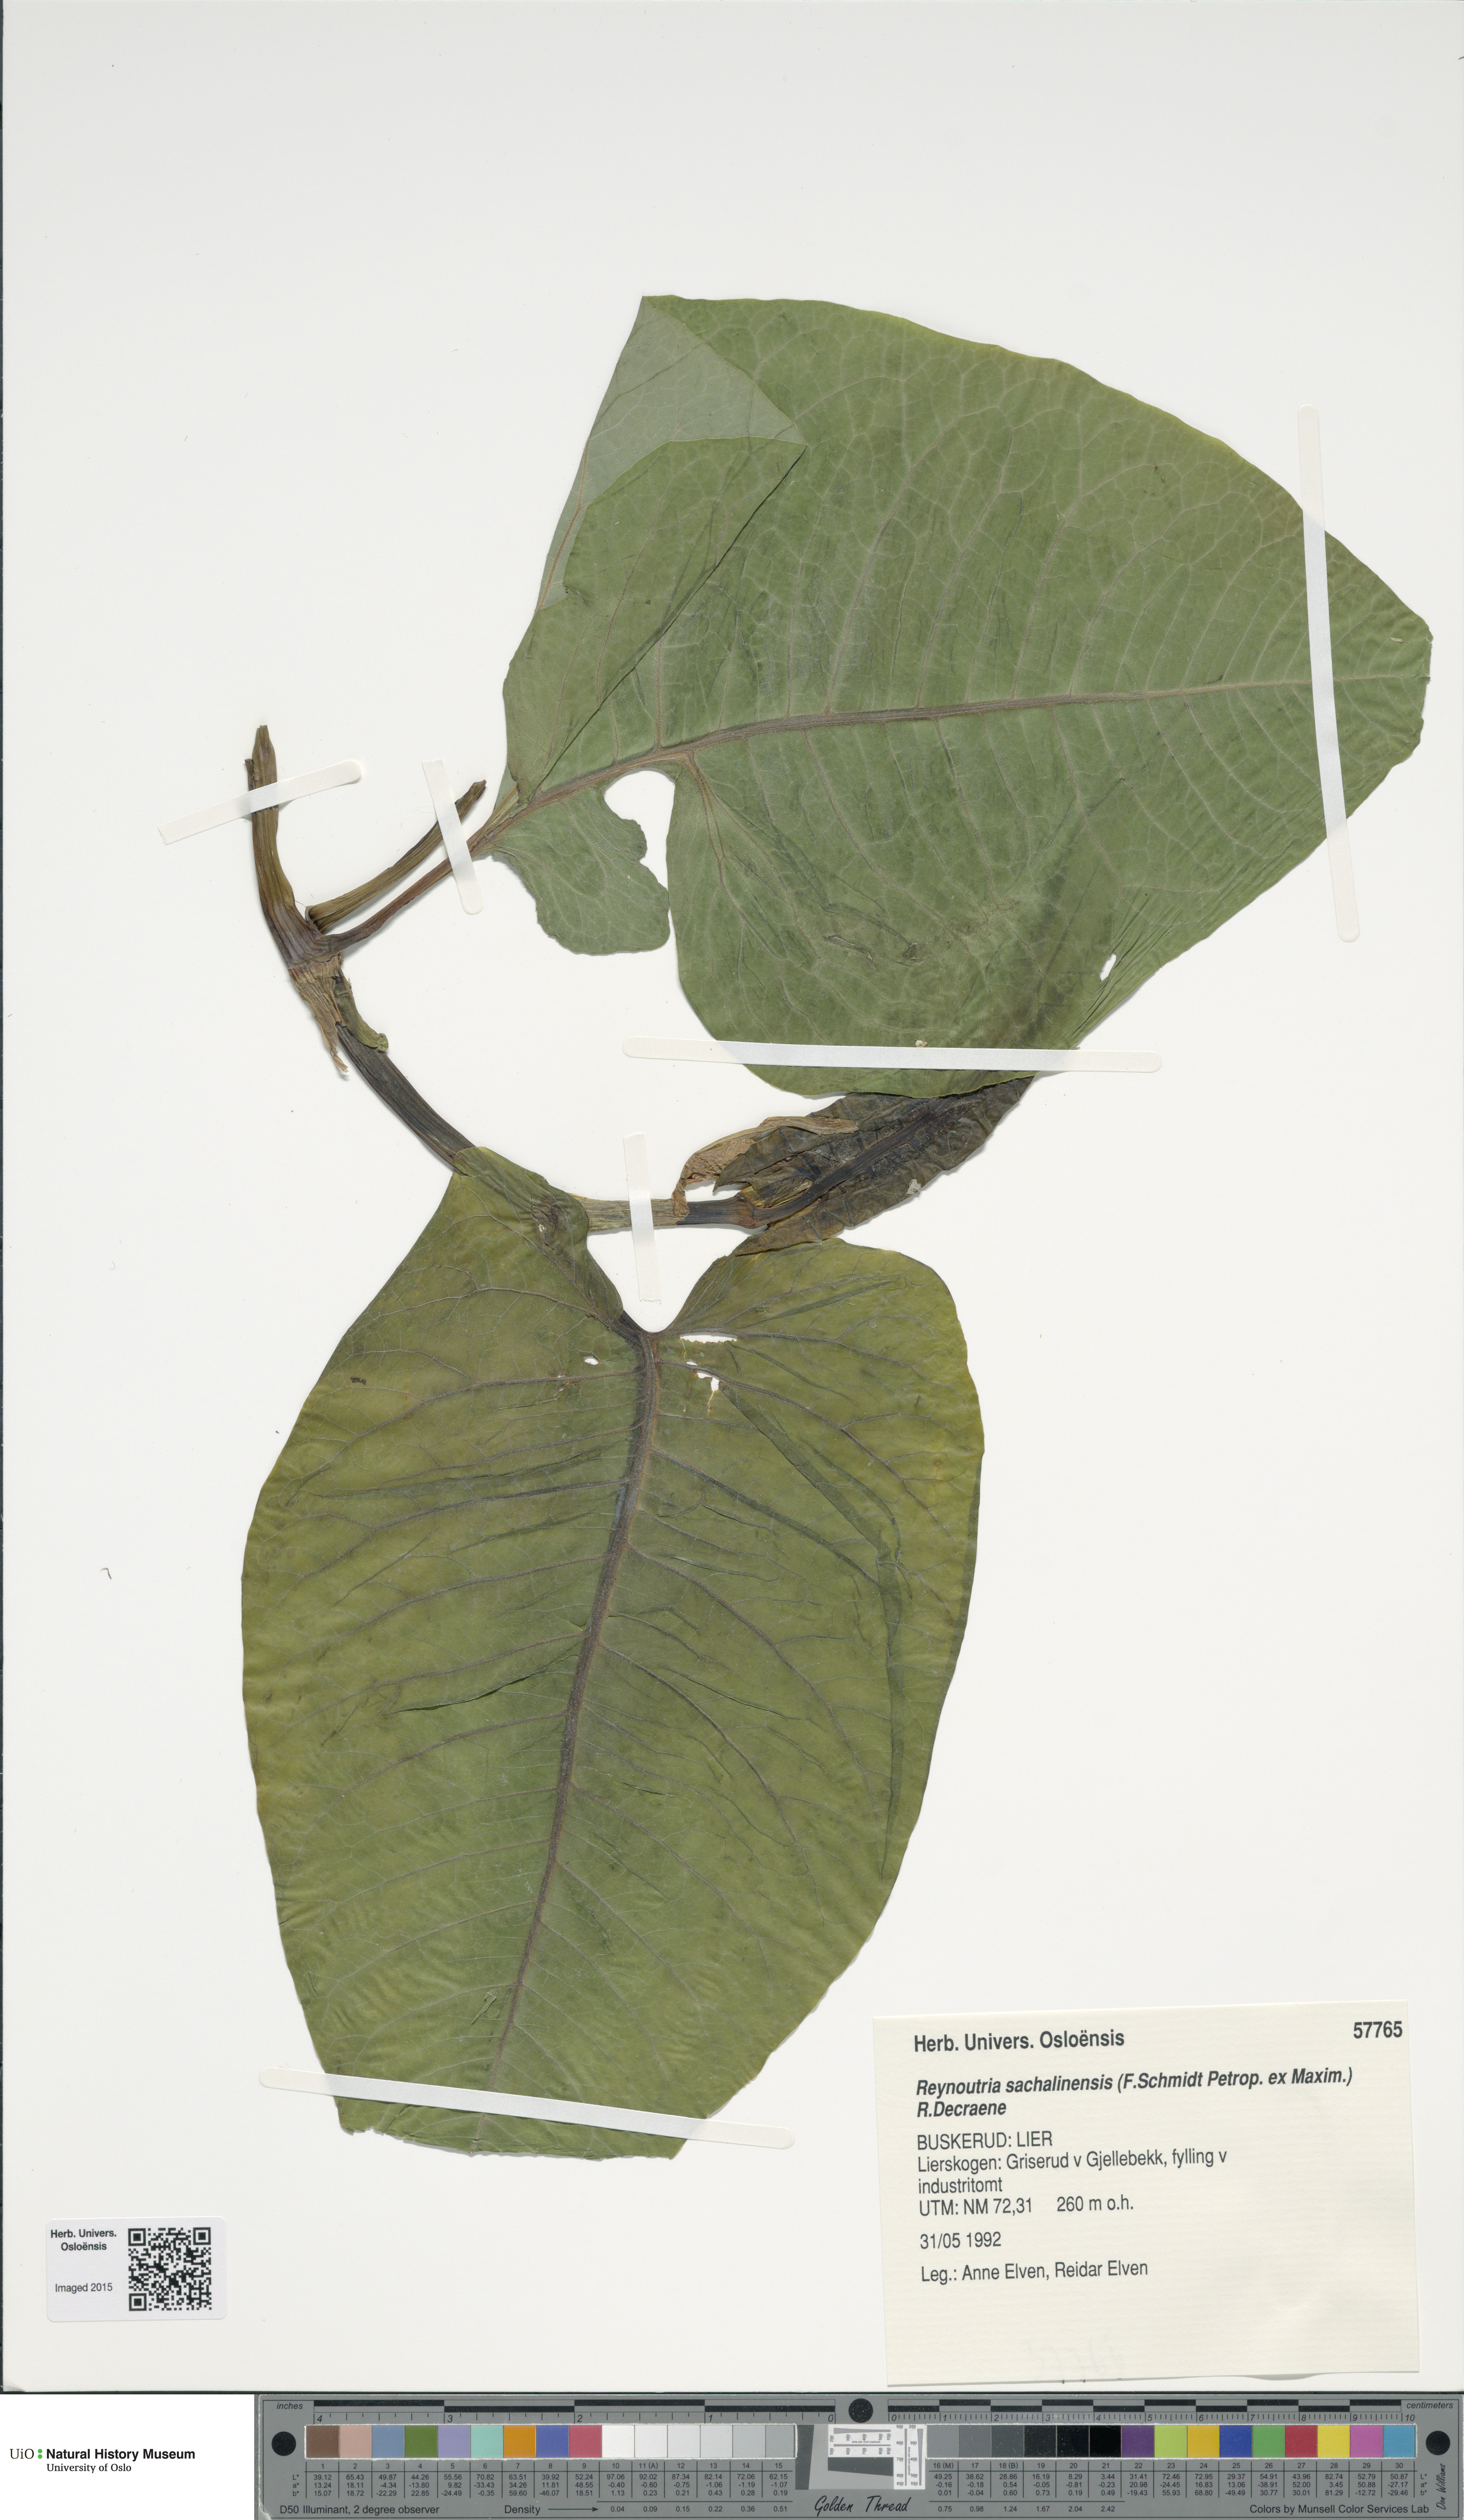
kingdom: Plantae
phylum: Tracheophyta
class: Magnoliopsida
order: Caryophyllales
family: Polygonaceae
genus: Reynoutria
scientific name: Reynoutria sachalinensis
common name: Giant knotweed
